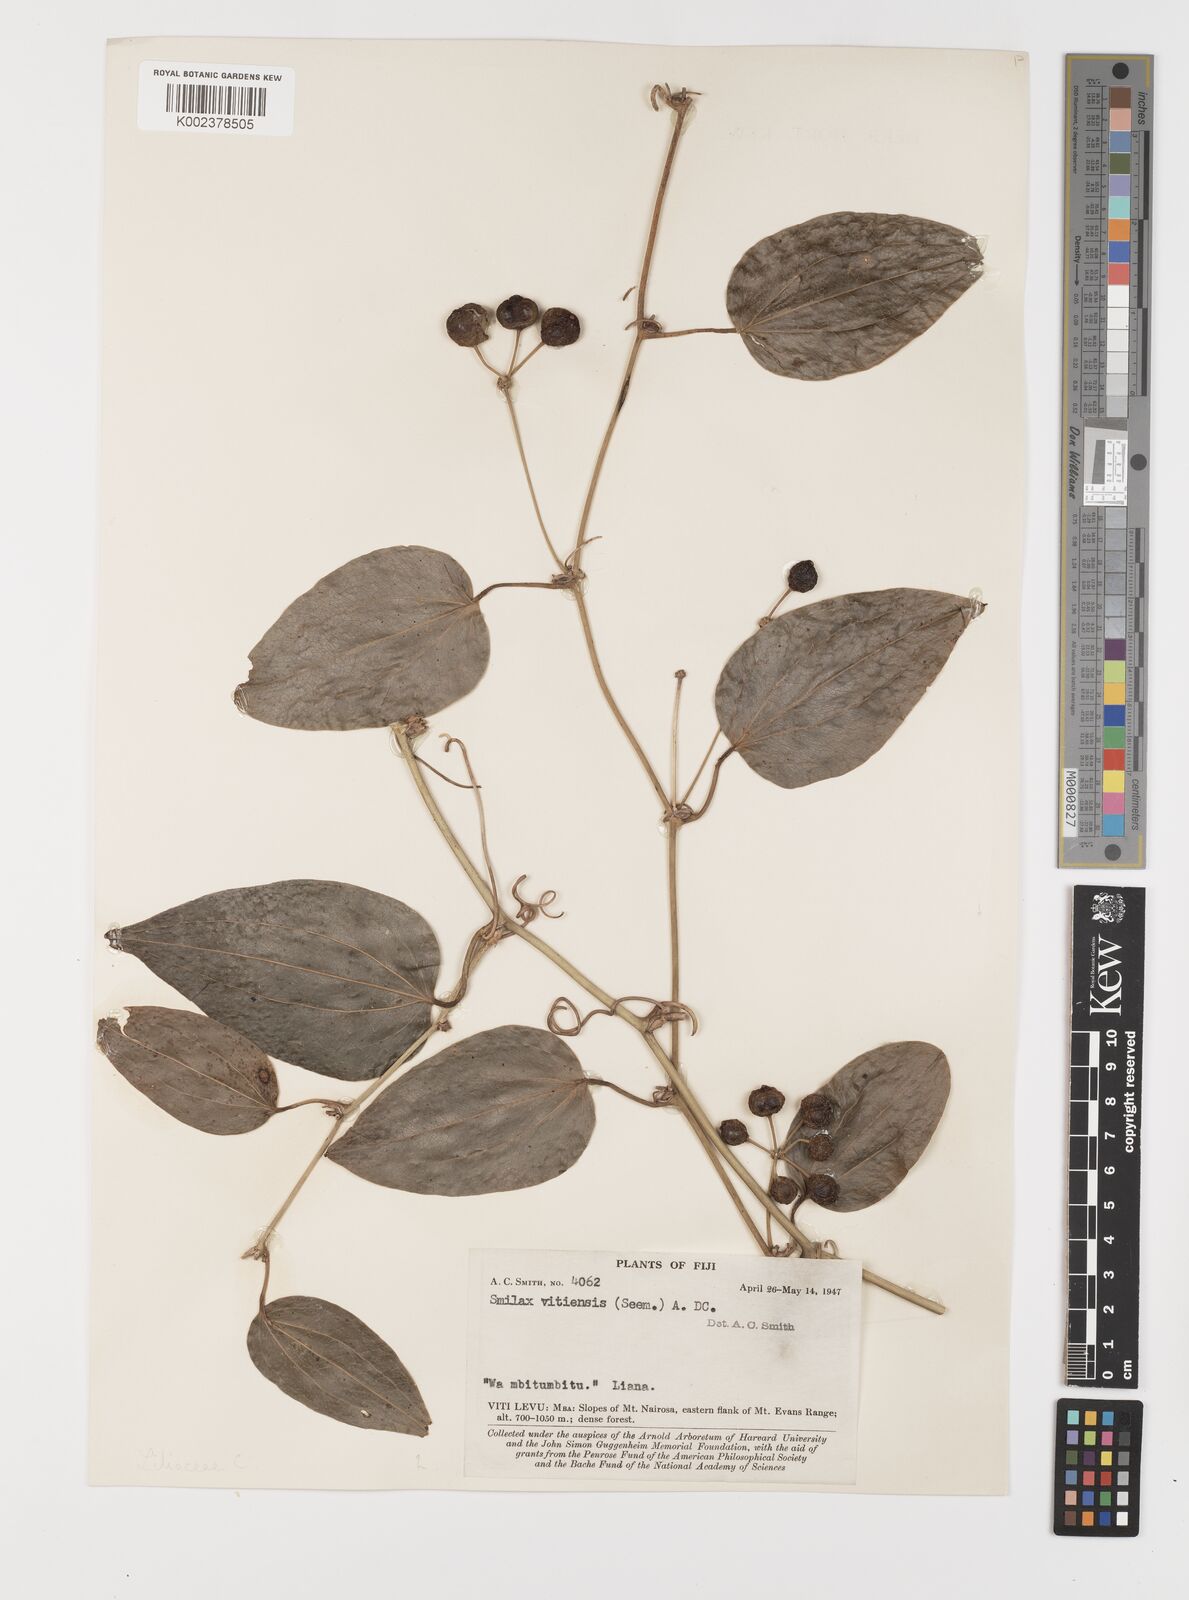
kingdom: Plantae
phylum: Tracheophyta
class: Liliopsida
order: Liliales
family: Smilacaceae
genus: Smilax
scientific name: Smilax vitiensis
